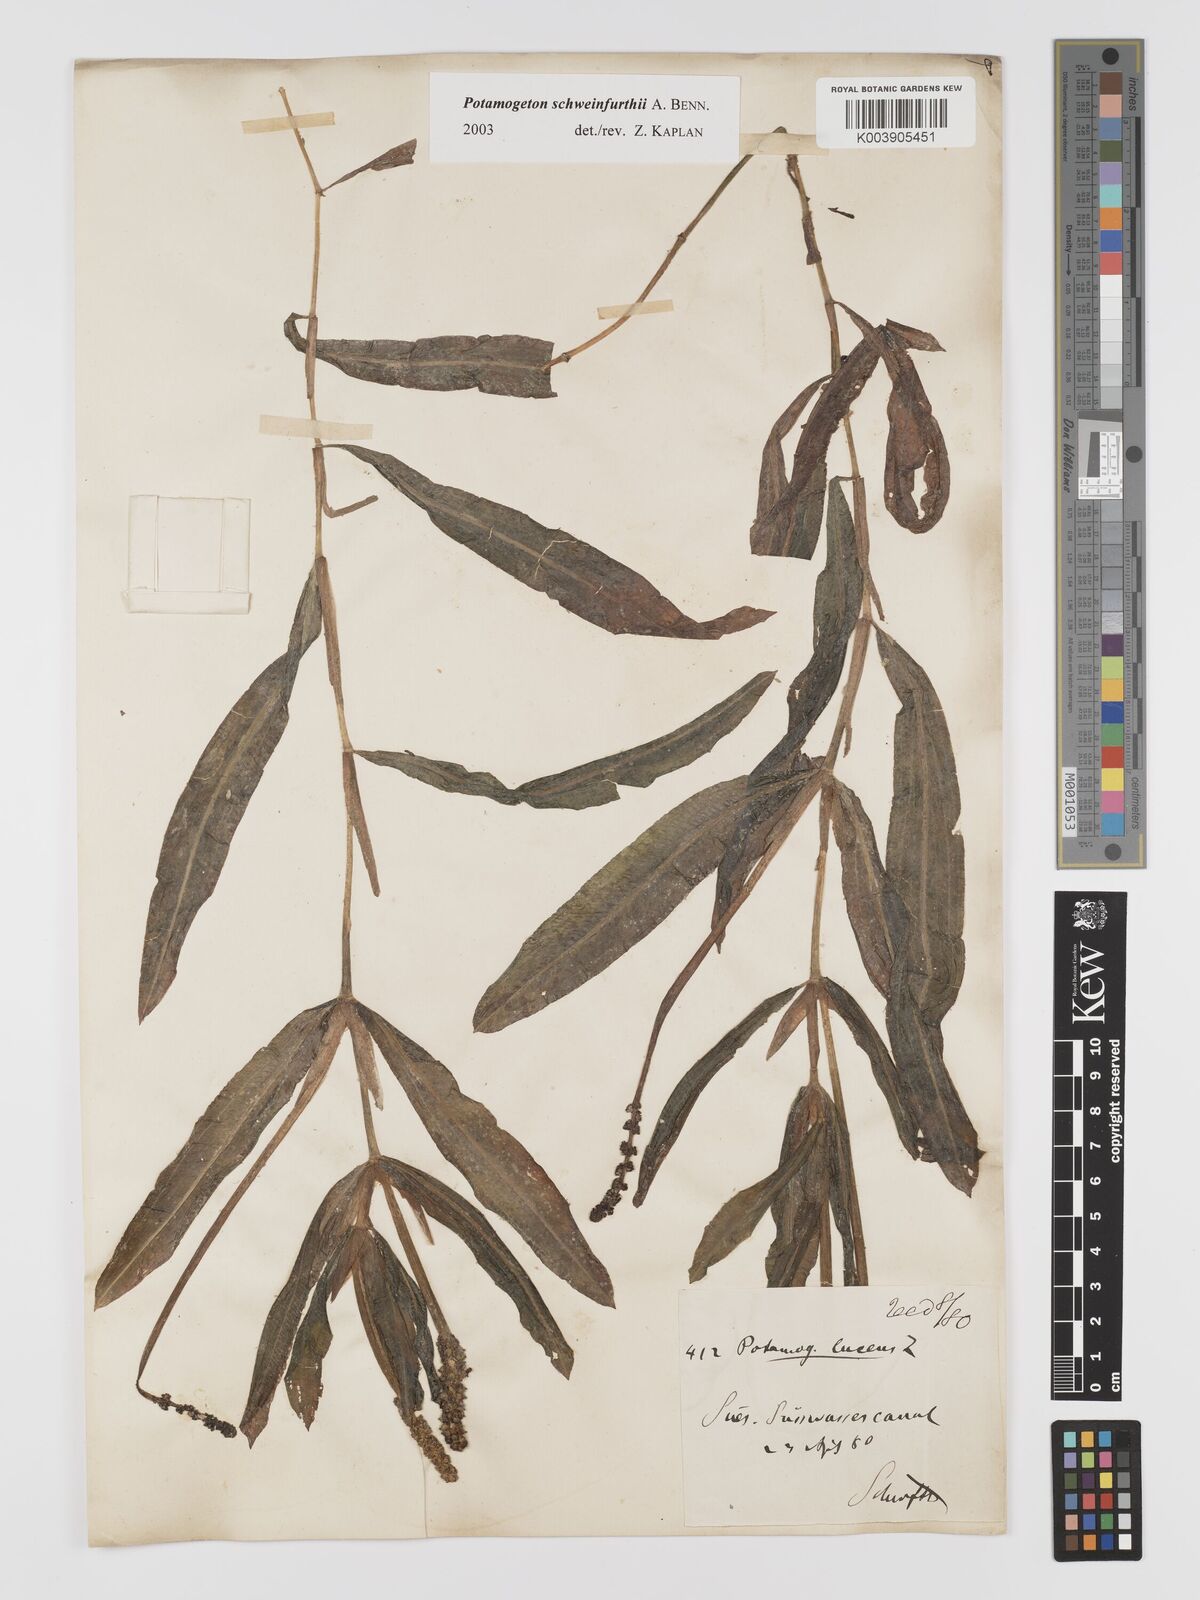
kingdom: Plantae
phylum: Tracheophyta
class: Liliopsida
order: Alismatales
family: Potamogetonaceae
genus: Potamogeton
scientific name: Potamogeton schweinfurthii
